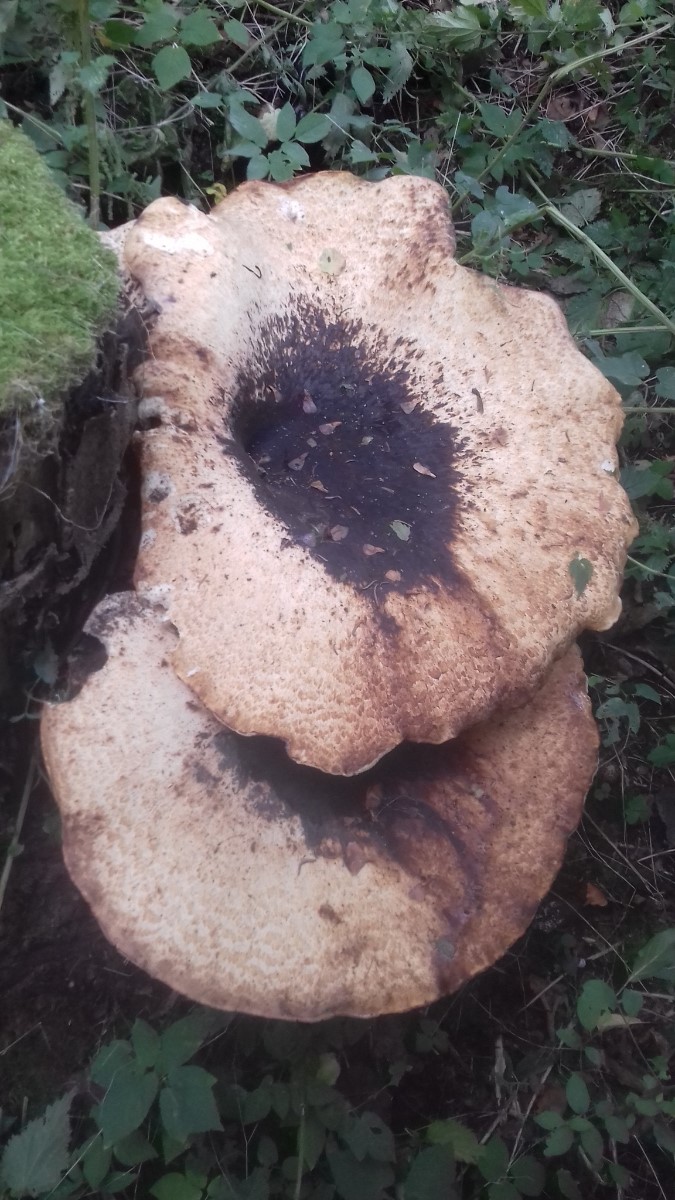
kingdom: Fungi
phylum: Basidiomycota
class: Agaricomycetes
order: Polyporales
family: Polyporaceae
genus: Cerioporus
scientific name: Cerioporus squamosus
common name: skællet stilkporesvamp
